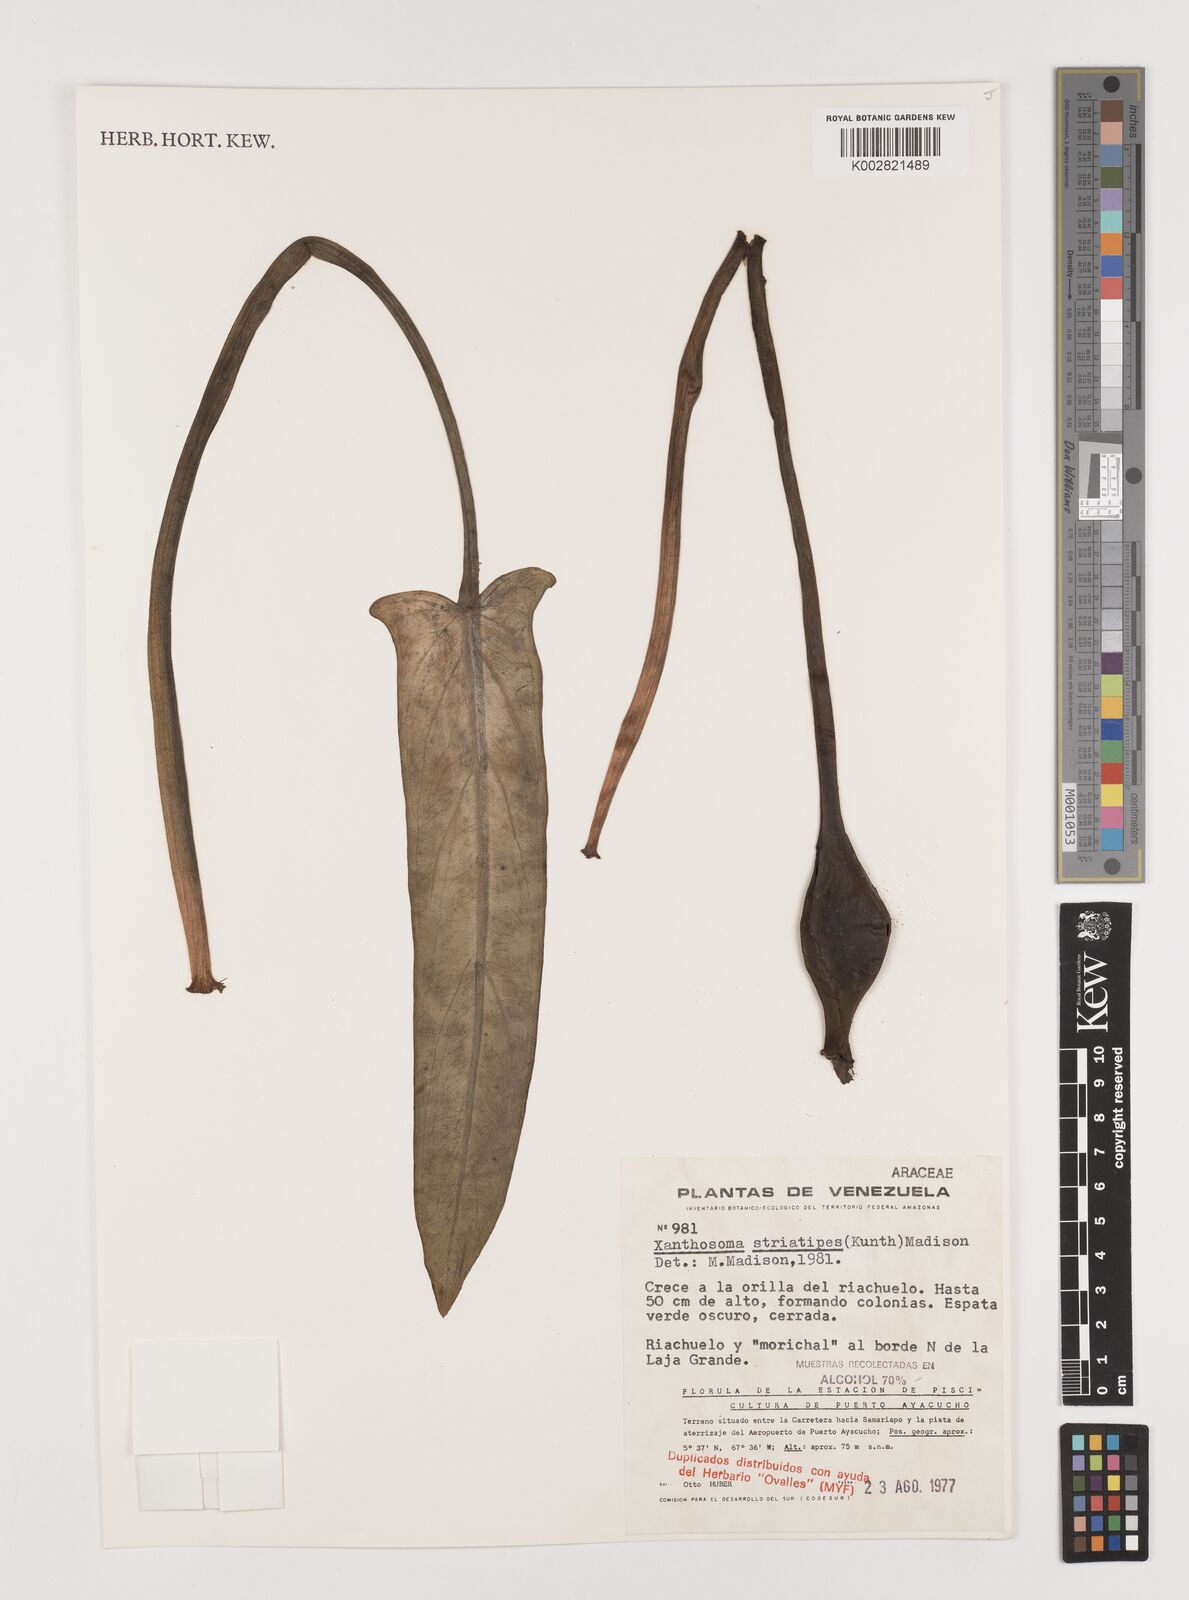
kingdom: Plantae
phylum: Tracheophyta
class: Liliopsida
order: Alismatales
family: Araceae
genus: Xanthosoma
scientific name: Xanthosoma striatipes
